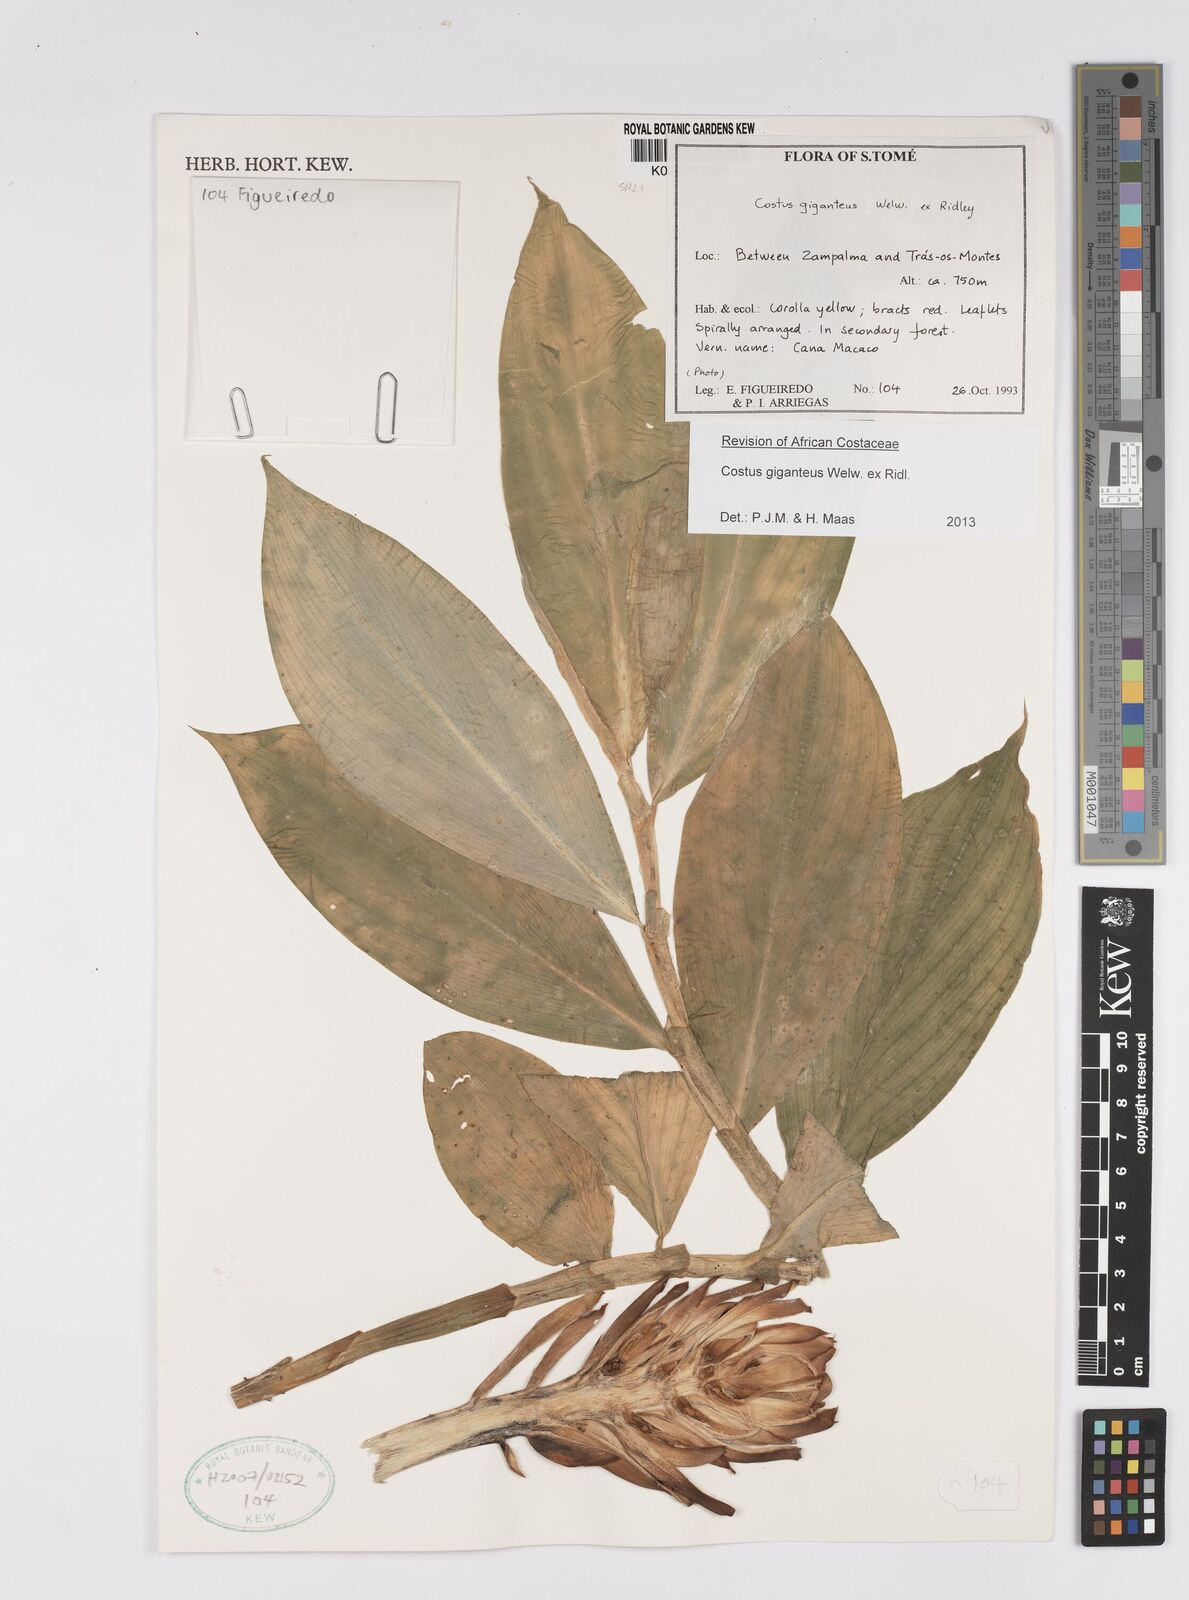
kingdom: Plantae
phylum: Tracheophyta
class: Liliopsida
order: Zingiberales
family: Costaceae
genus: Costus
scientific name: Costus giganteus
